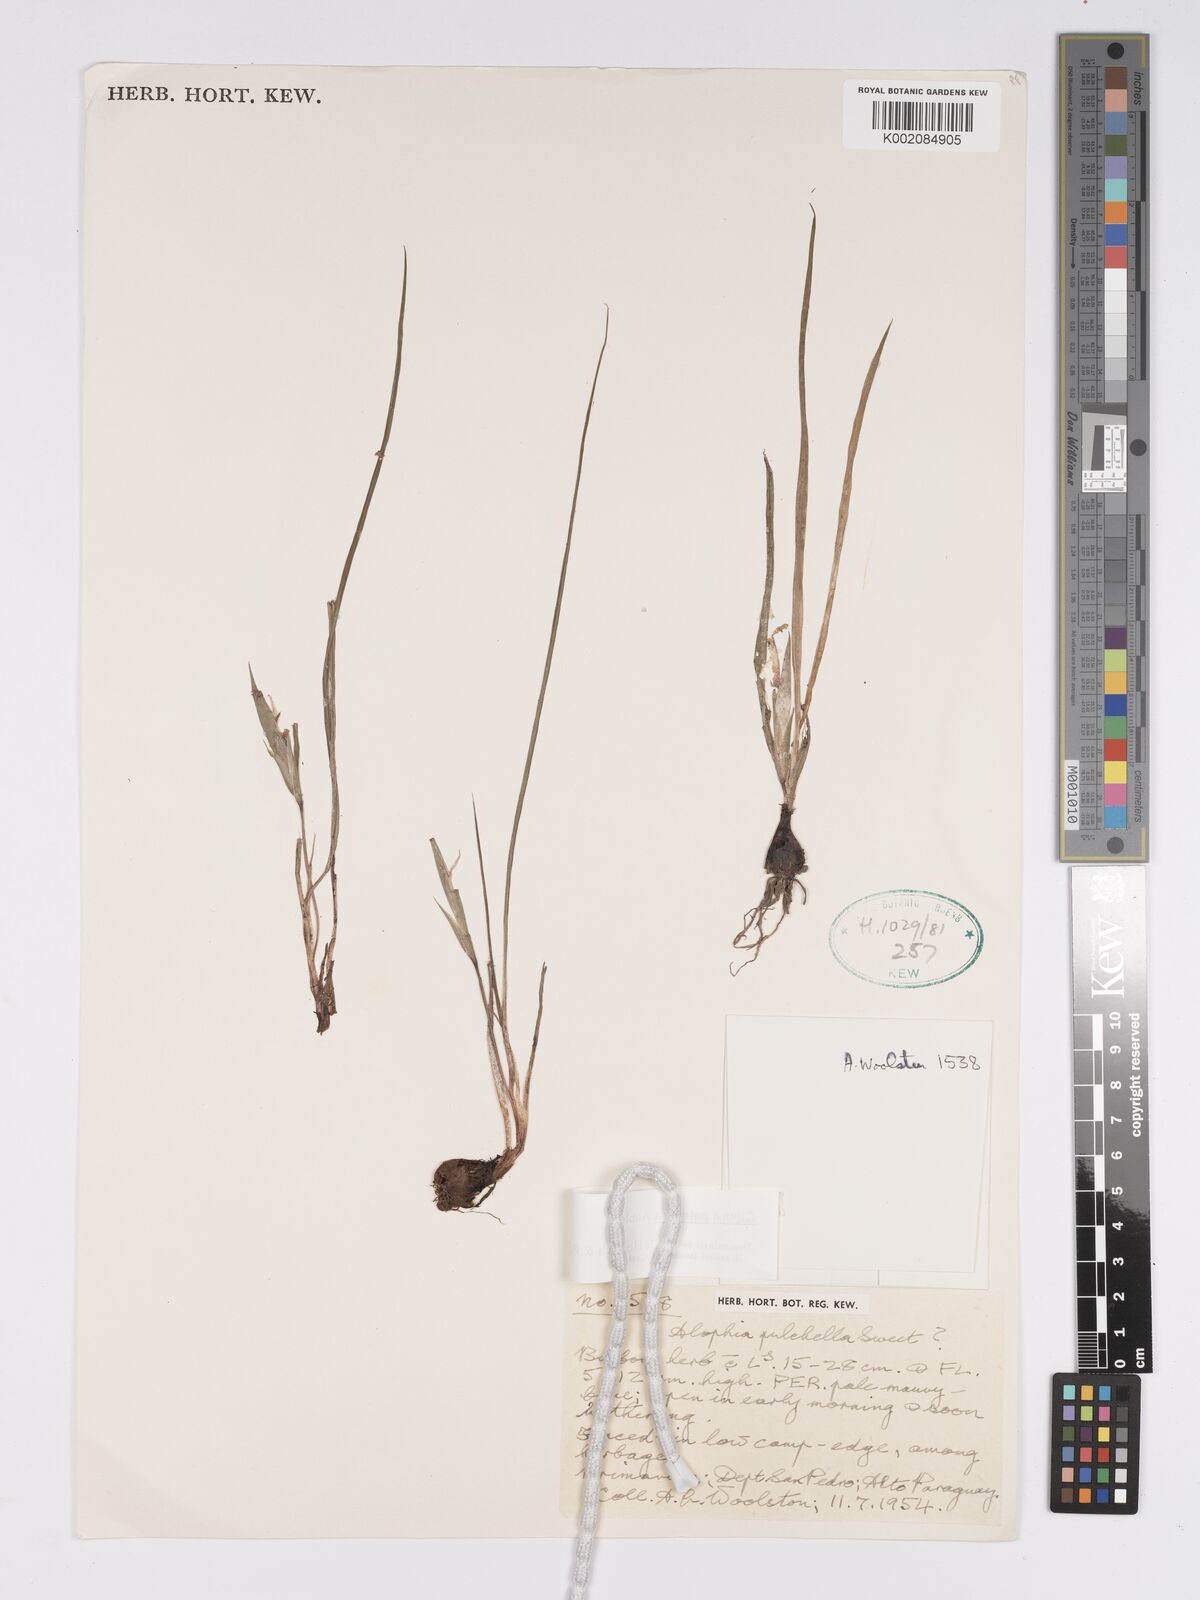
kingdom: Plantae
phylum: Tracheophyta
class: Liliopsida
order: Asparagales
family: Iridaceae
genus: Cipura
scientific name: Cipura paludosa
